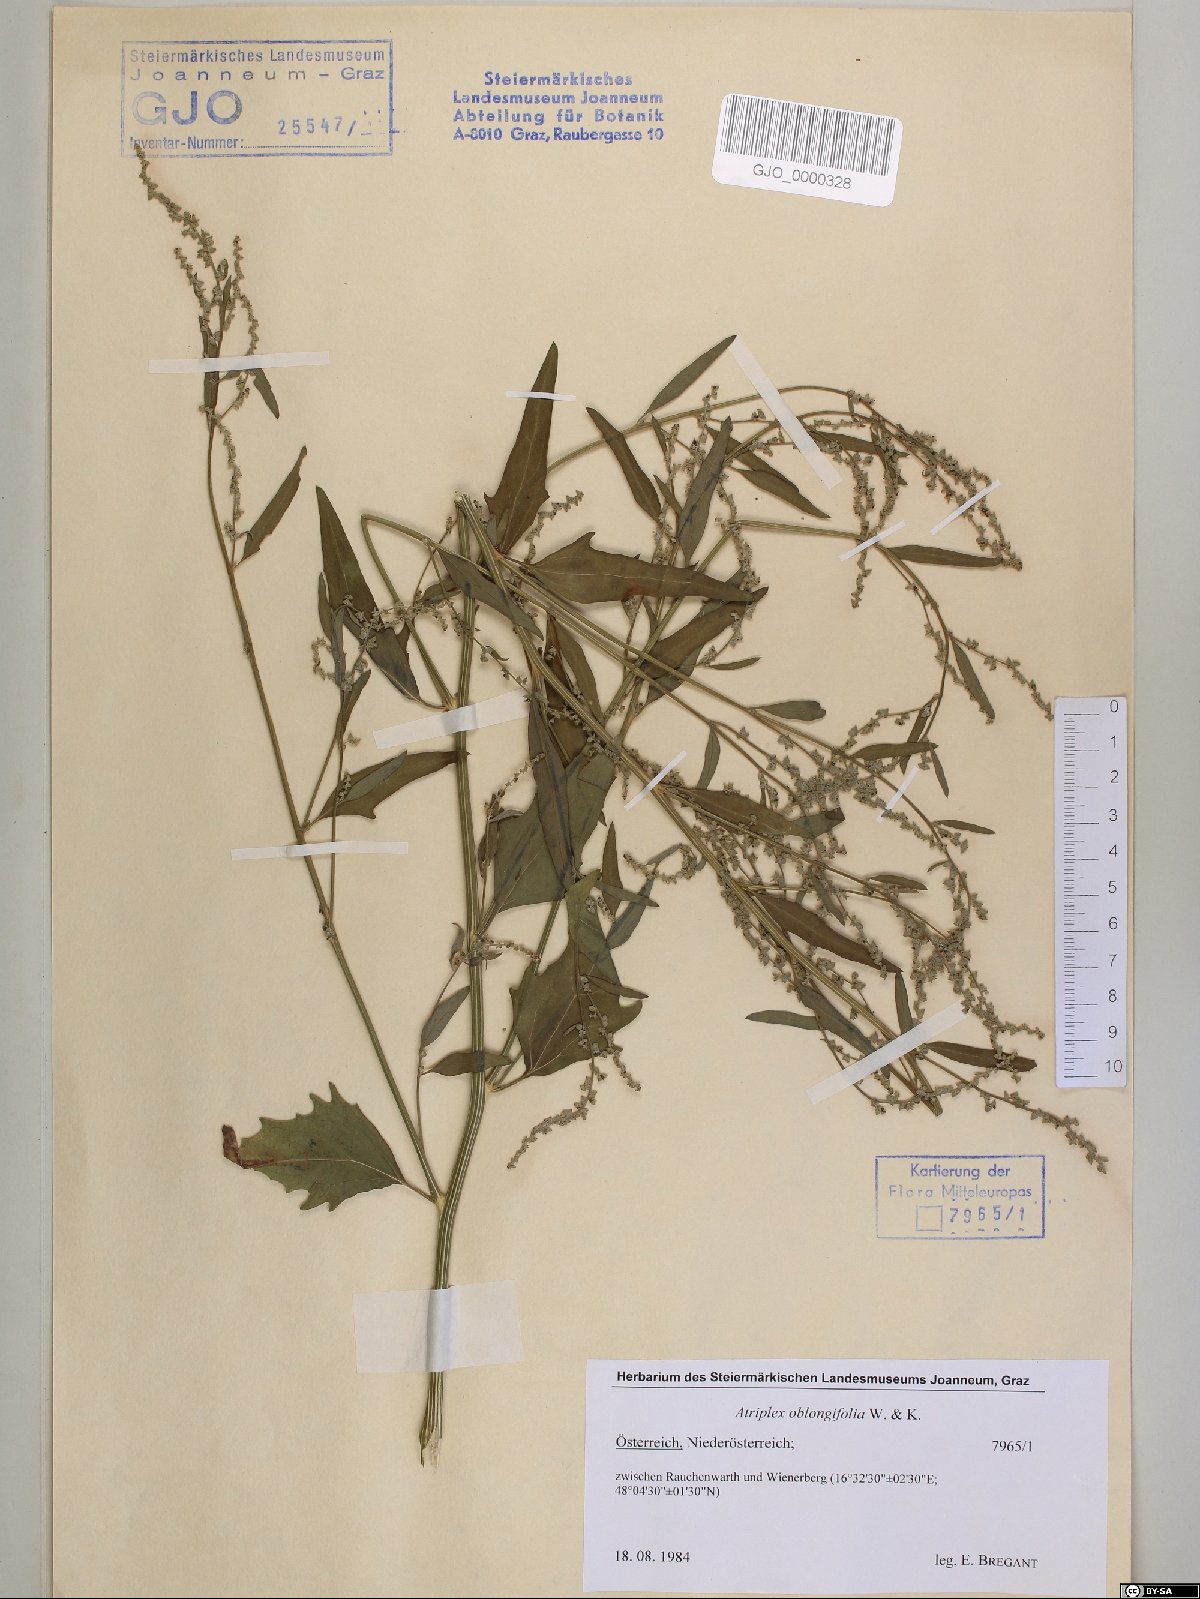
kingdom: Plantae
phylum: Tracheophyta
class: Magnoliopsida
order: Caryophyllales
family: Amaranthaceae
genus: Atriplex
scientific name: Atriplex oblongifolia
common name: Oblongleaf orache
